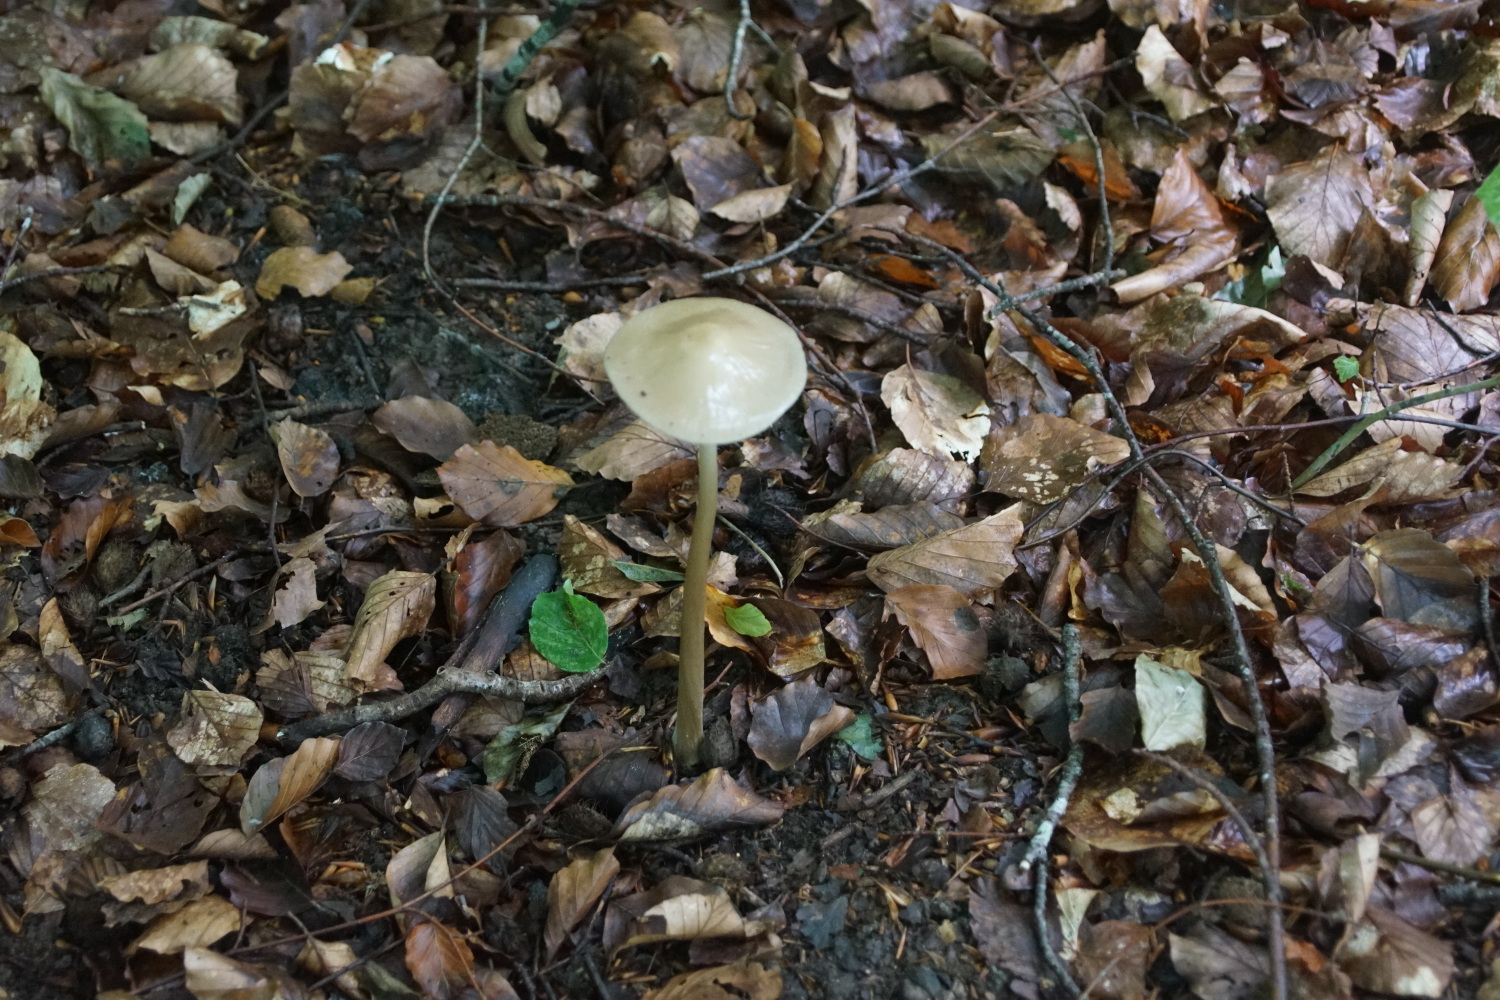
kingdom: Fungi
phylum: Basidiomycota
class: Agaricomycetes
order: Agaricales
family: Physalacriaceae
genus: Hymenopellis
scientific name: Hymenopellis radicata
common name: almindelig pælerodshat
